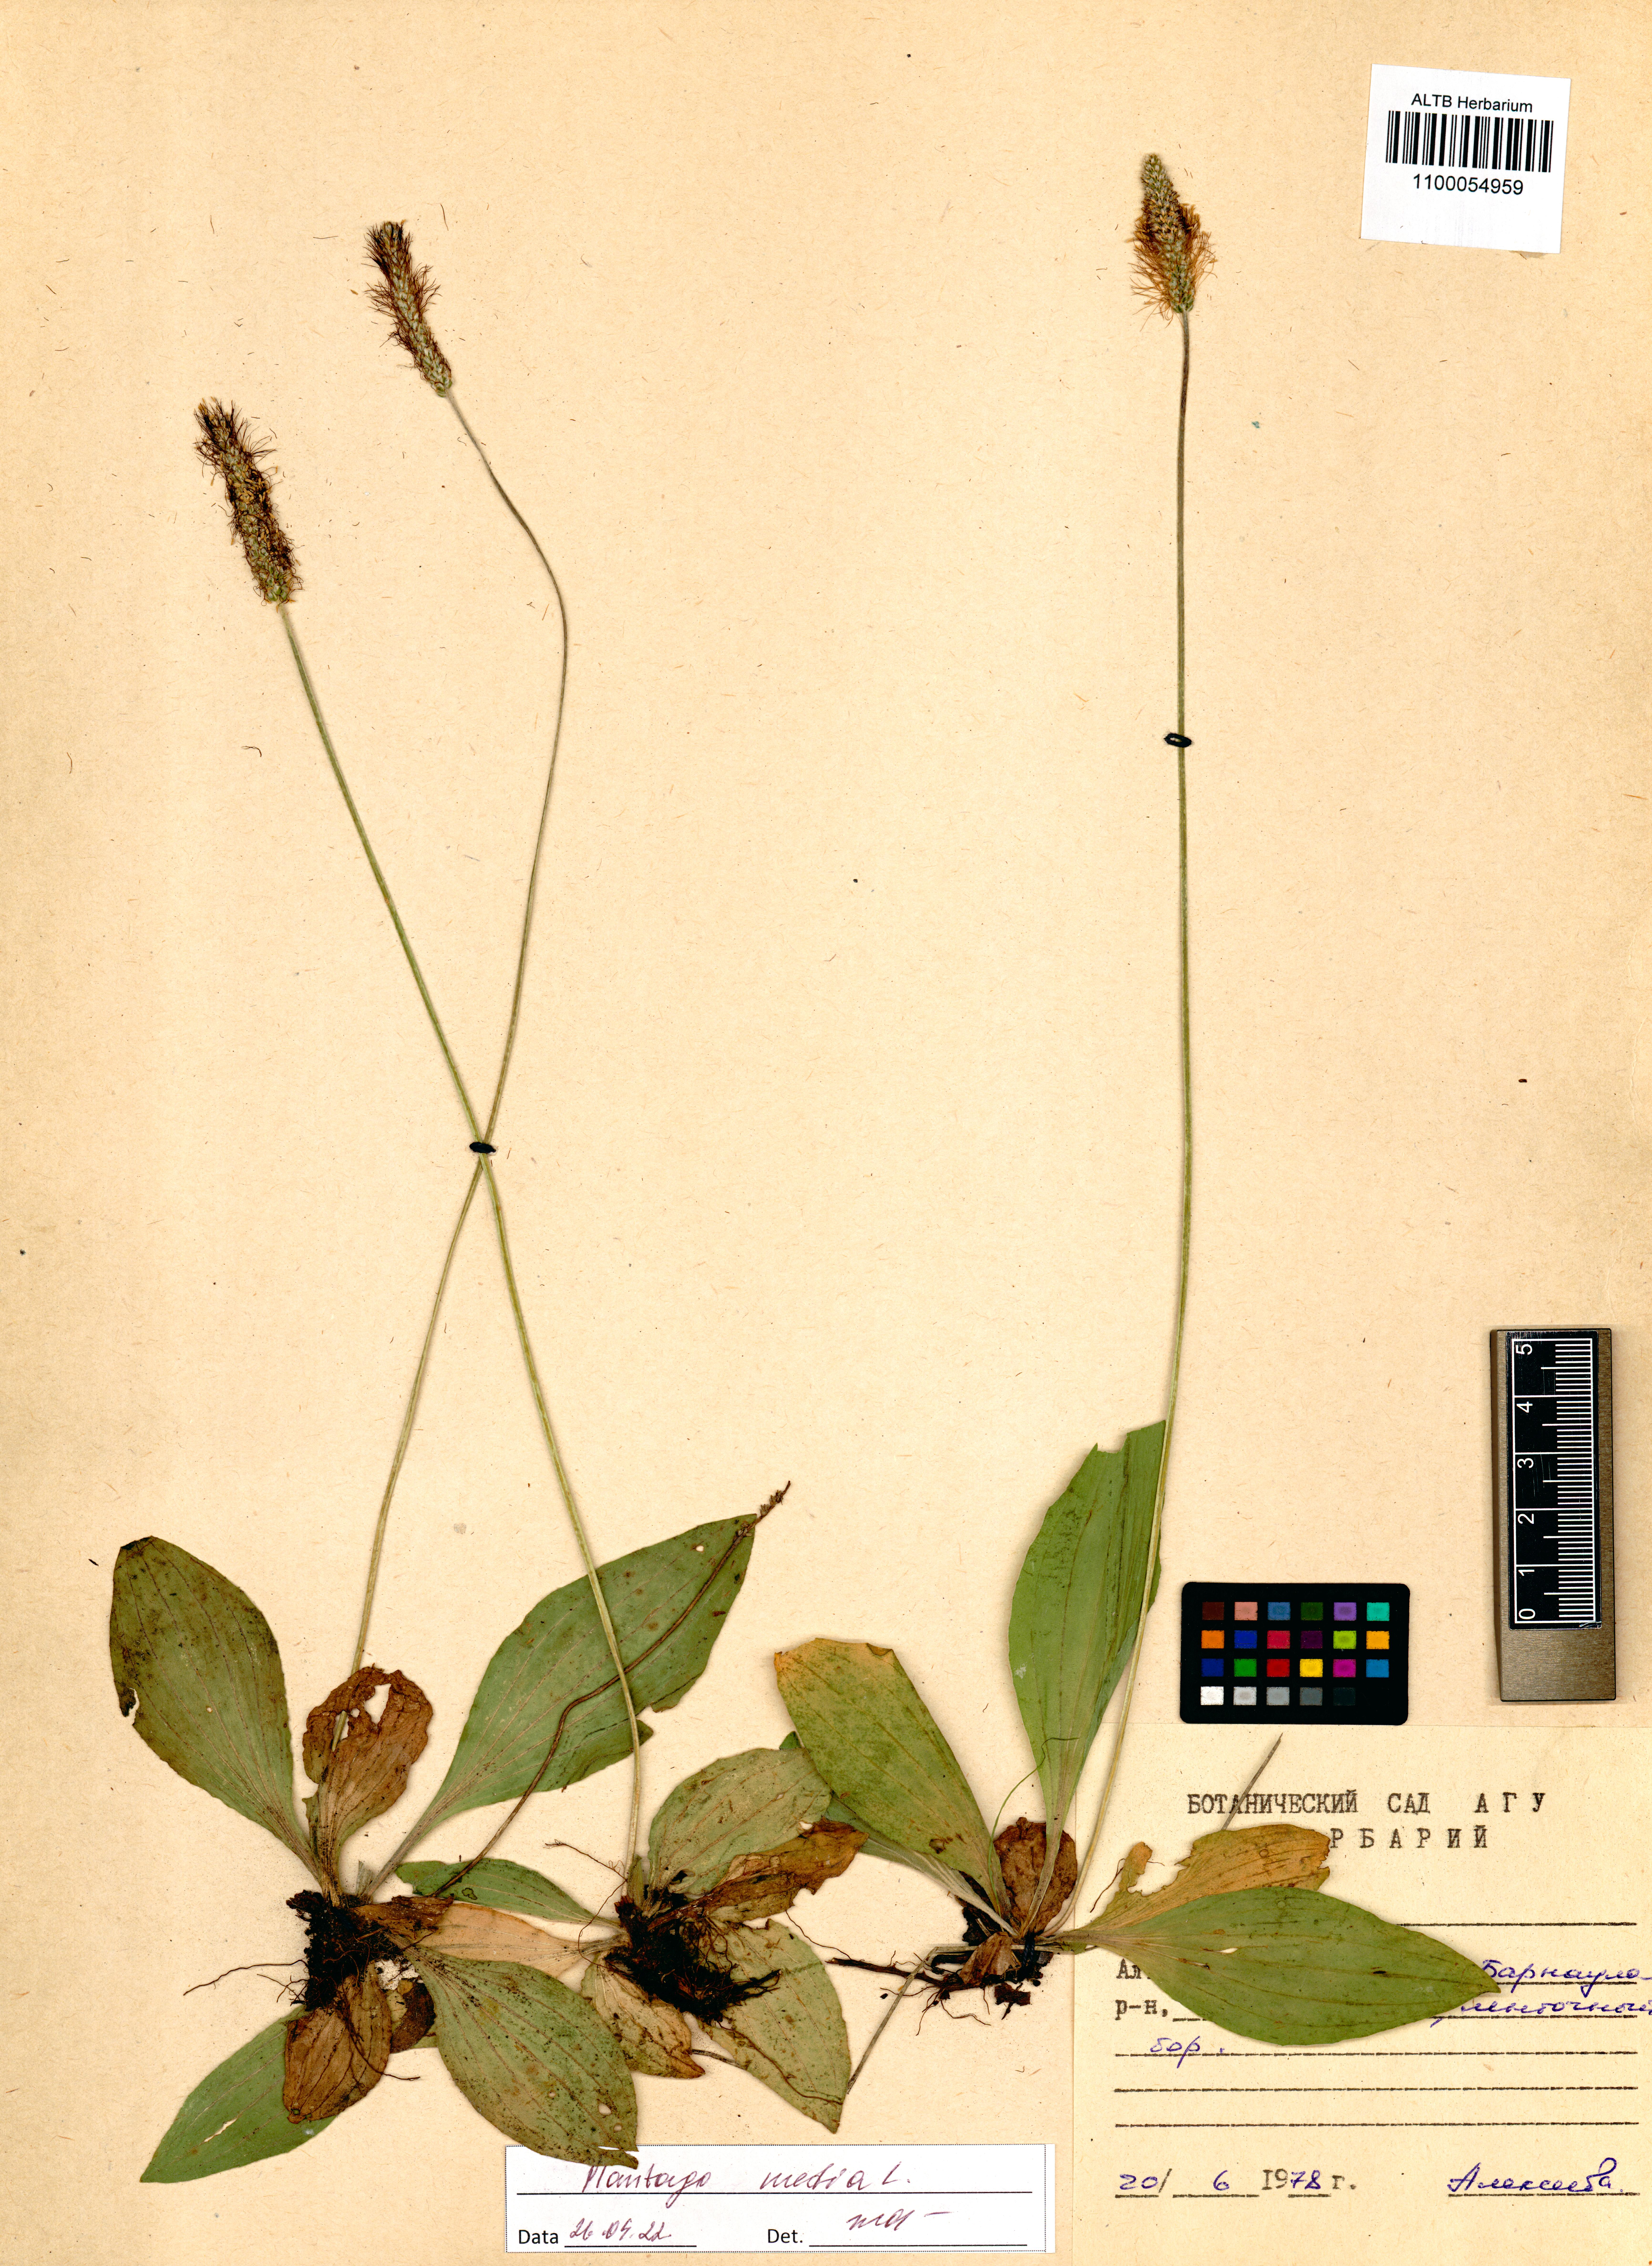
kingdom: Plantae
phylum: Tracheophyta
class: Magnoliopsida
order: Lamiales
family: Plantaginaceae
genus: Plantago
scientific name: Plantago media
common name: Hoary plantain
